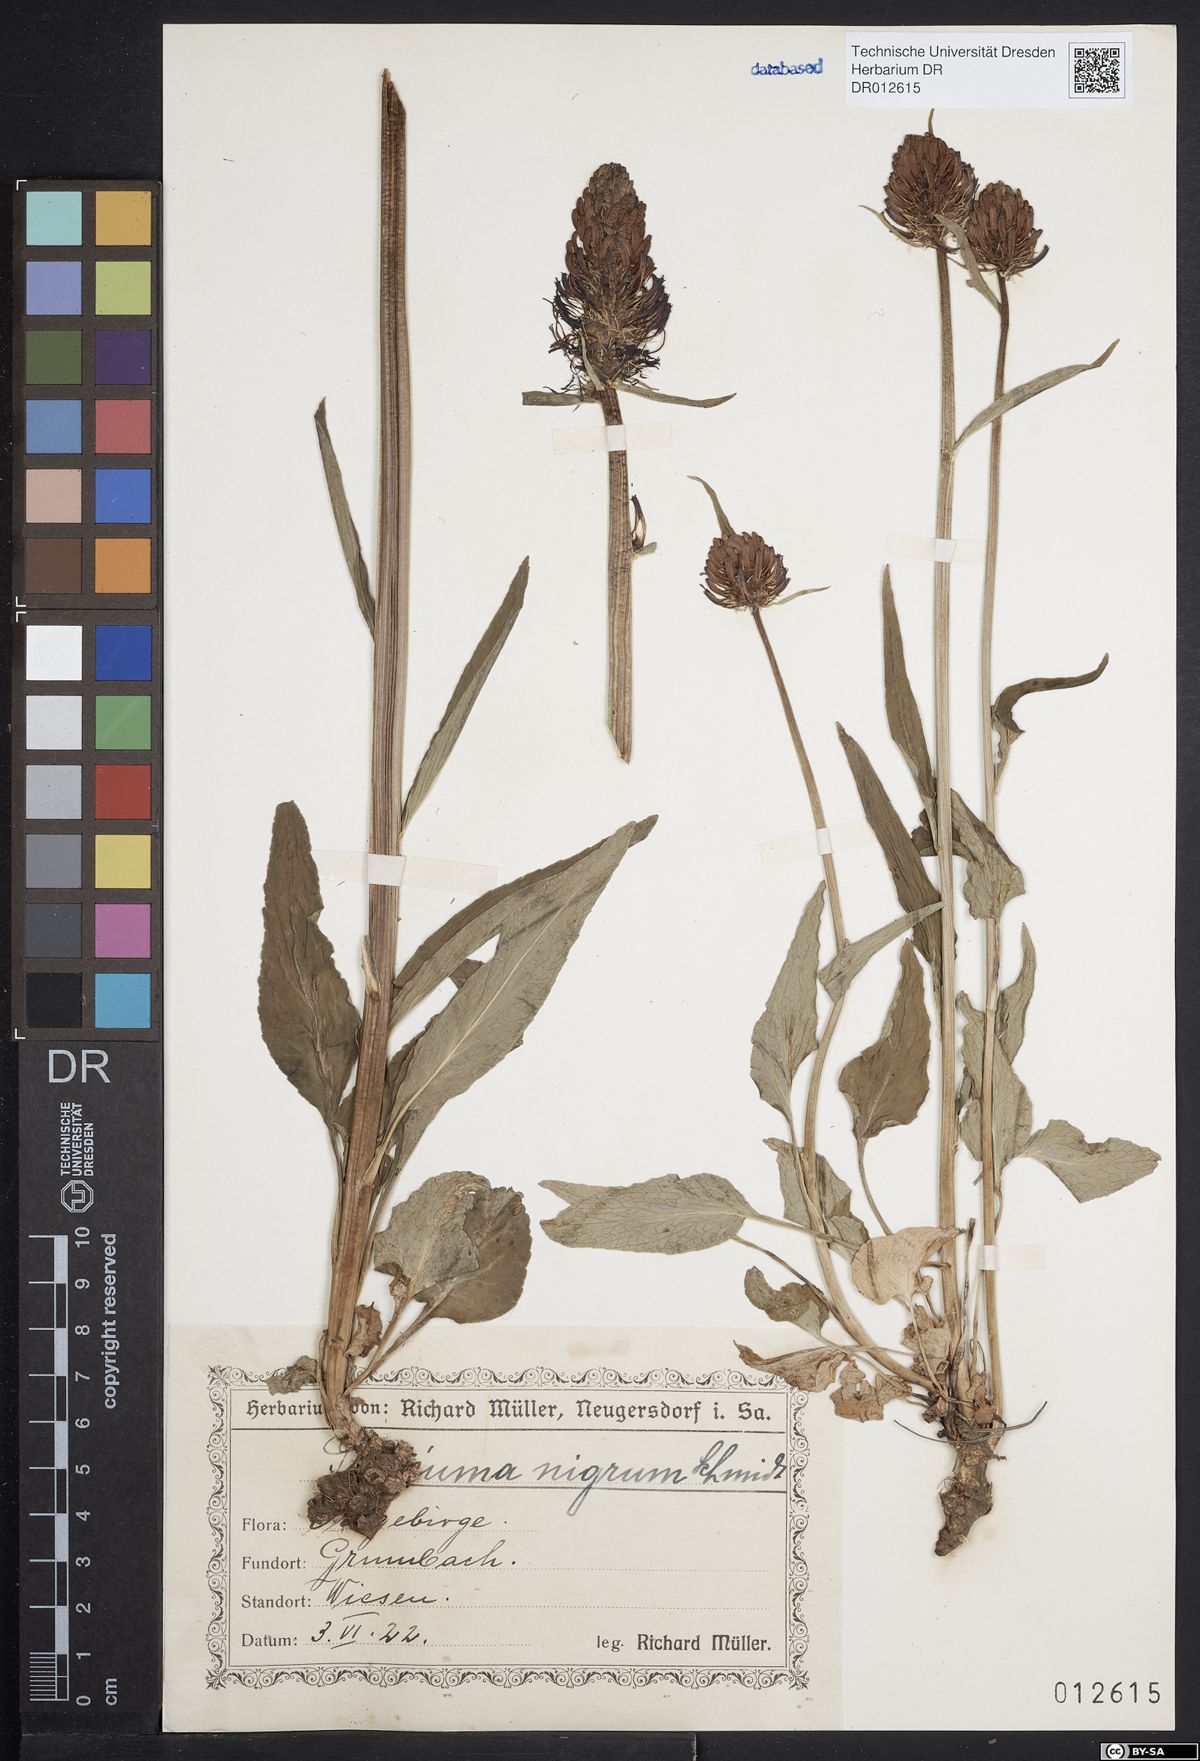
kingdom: Plantae
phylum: Tracheophyta
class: Magnoliopsida
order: Asterales
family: Campanulaceae
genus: Phyteuma
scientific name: Phyteuma nigrum
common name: Black rampion
